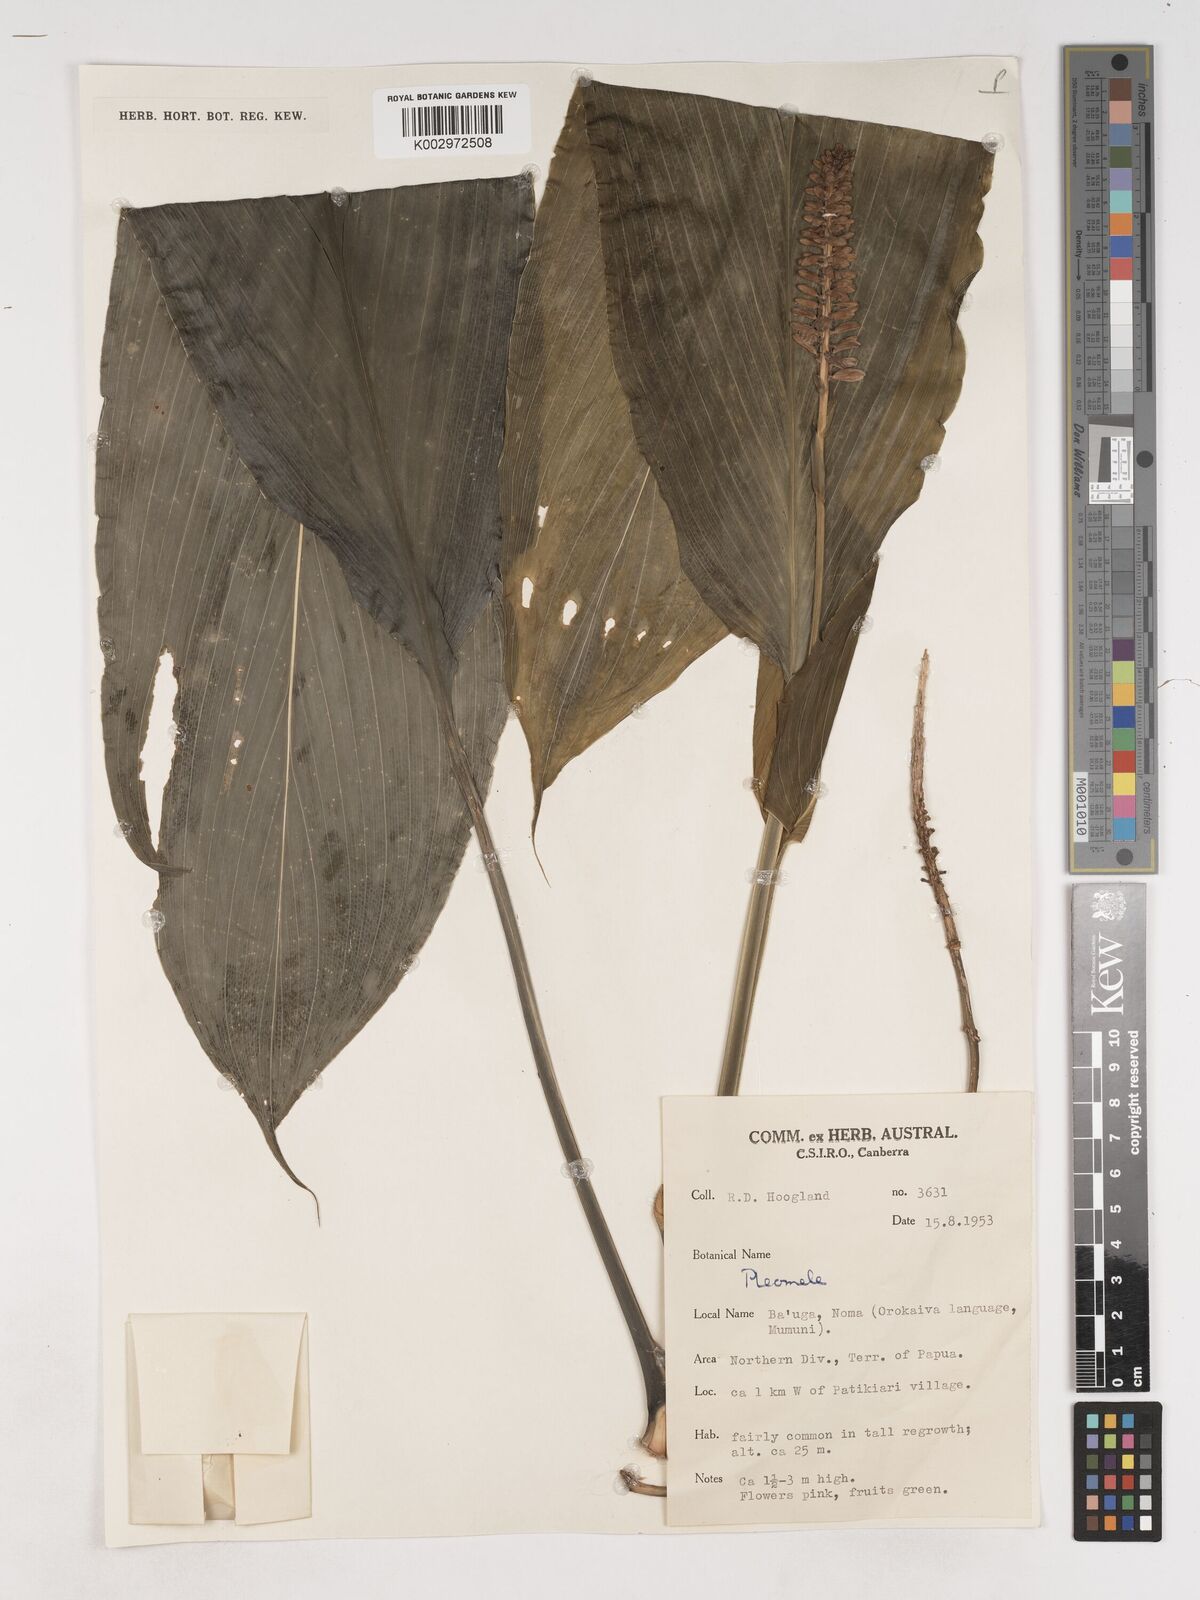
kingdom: Plantae
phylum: Tracheophyta
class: Liliopsida
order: Asparagales
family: Asparagaceae
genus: Cordyline
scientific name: Cordyline
